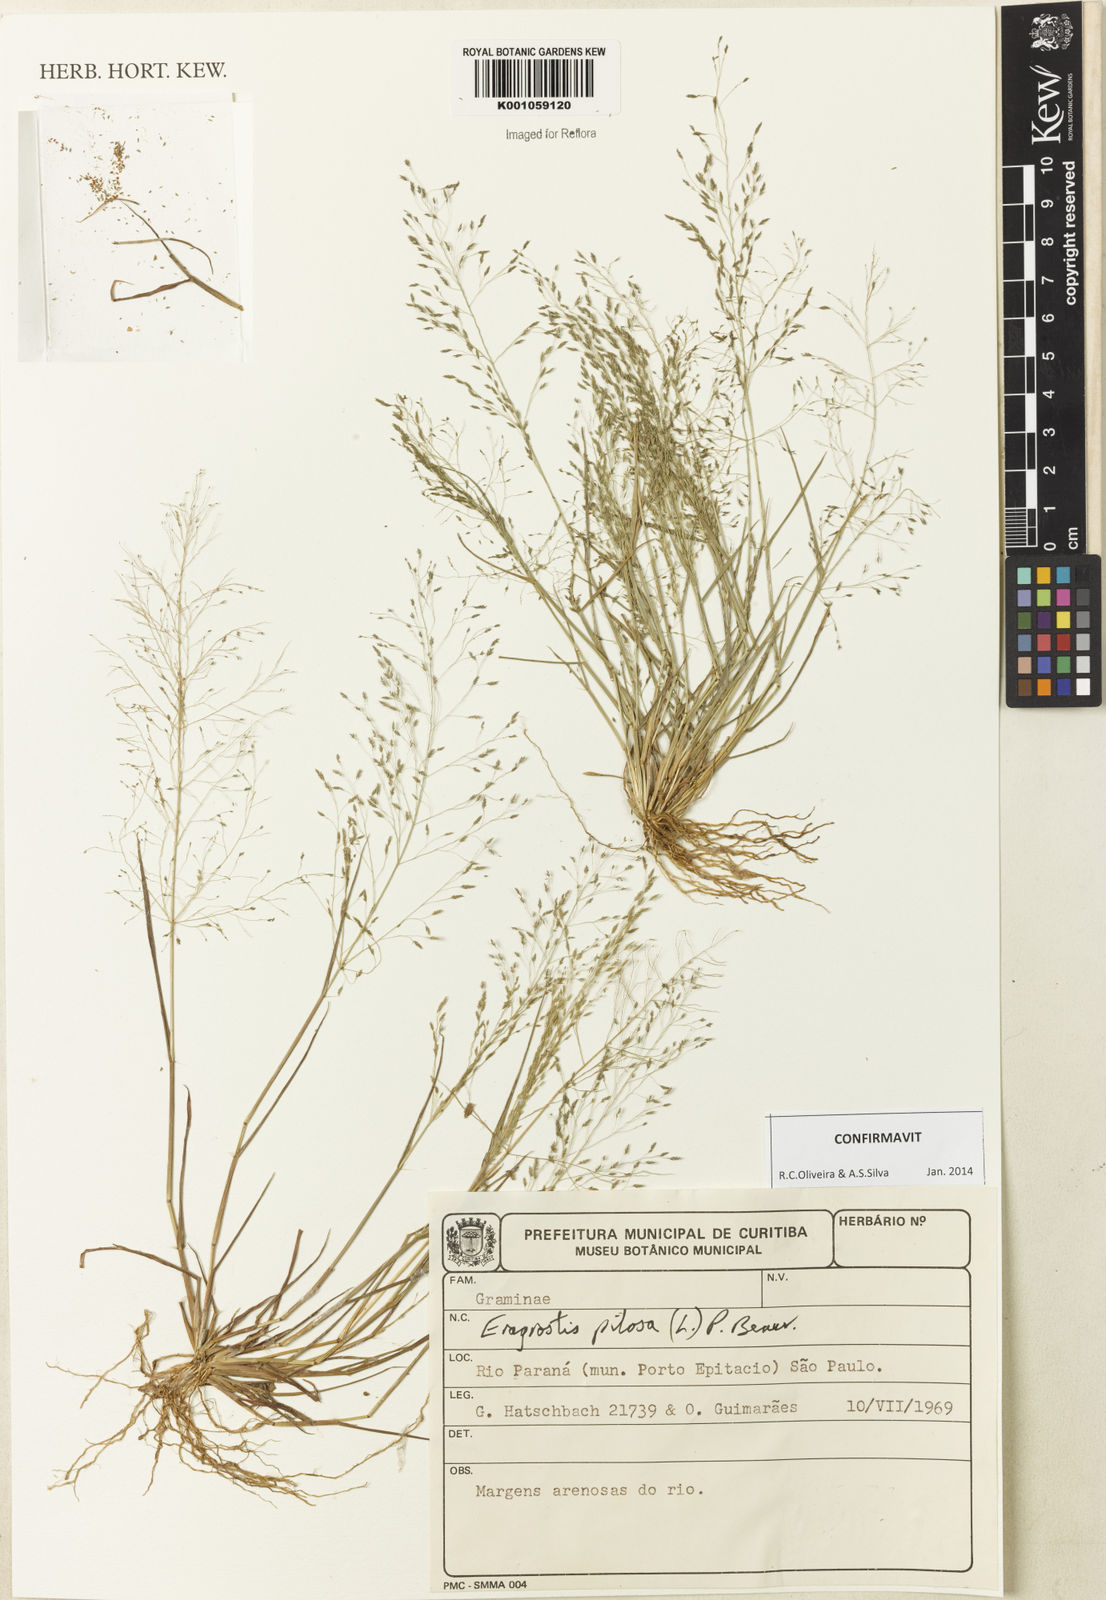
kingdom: Plantae
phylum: Tracheophyta
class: Liliopsida
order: Poales
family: Poaceae
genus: Eragrostis
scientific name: Eragrostis pilosa
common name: Indian lovegrass
